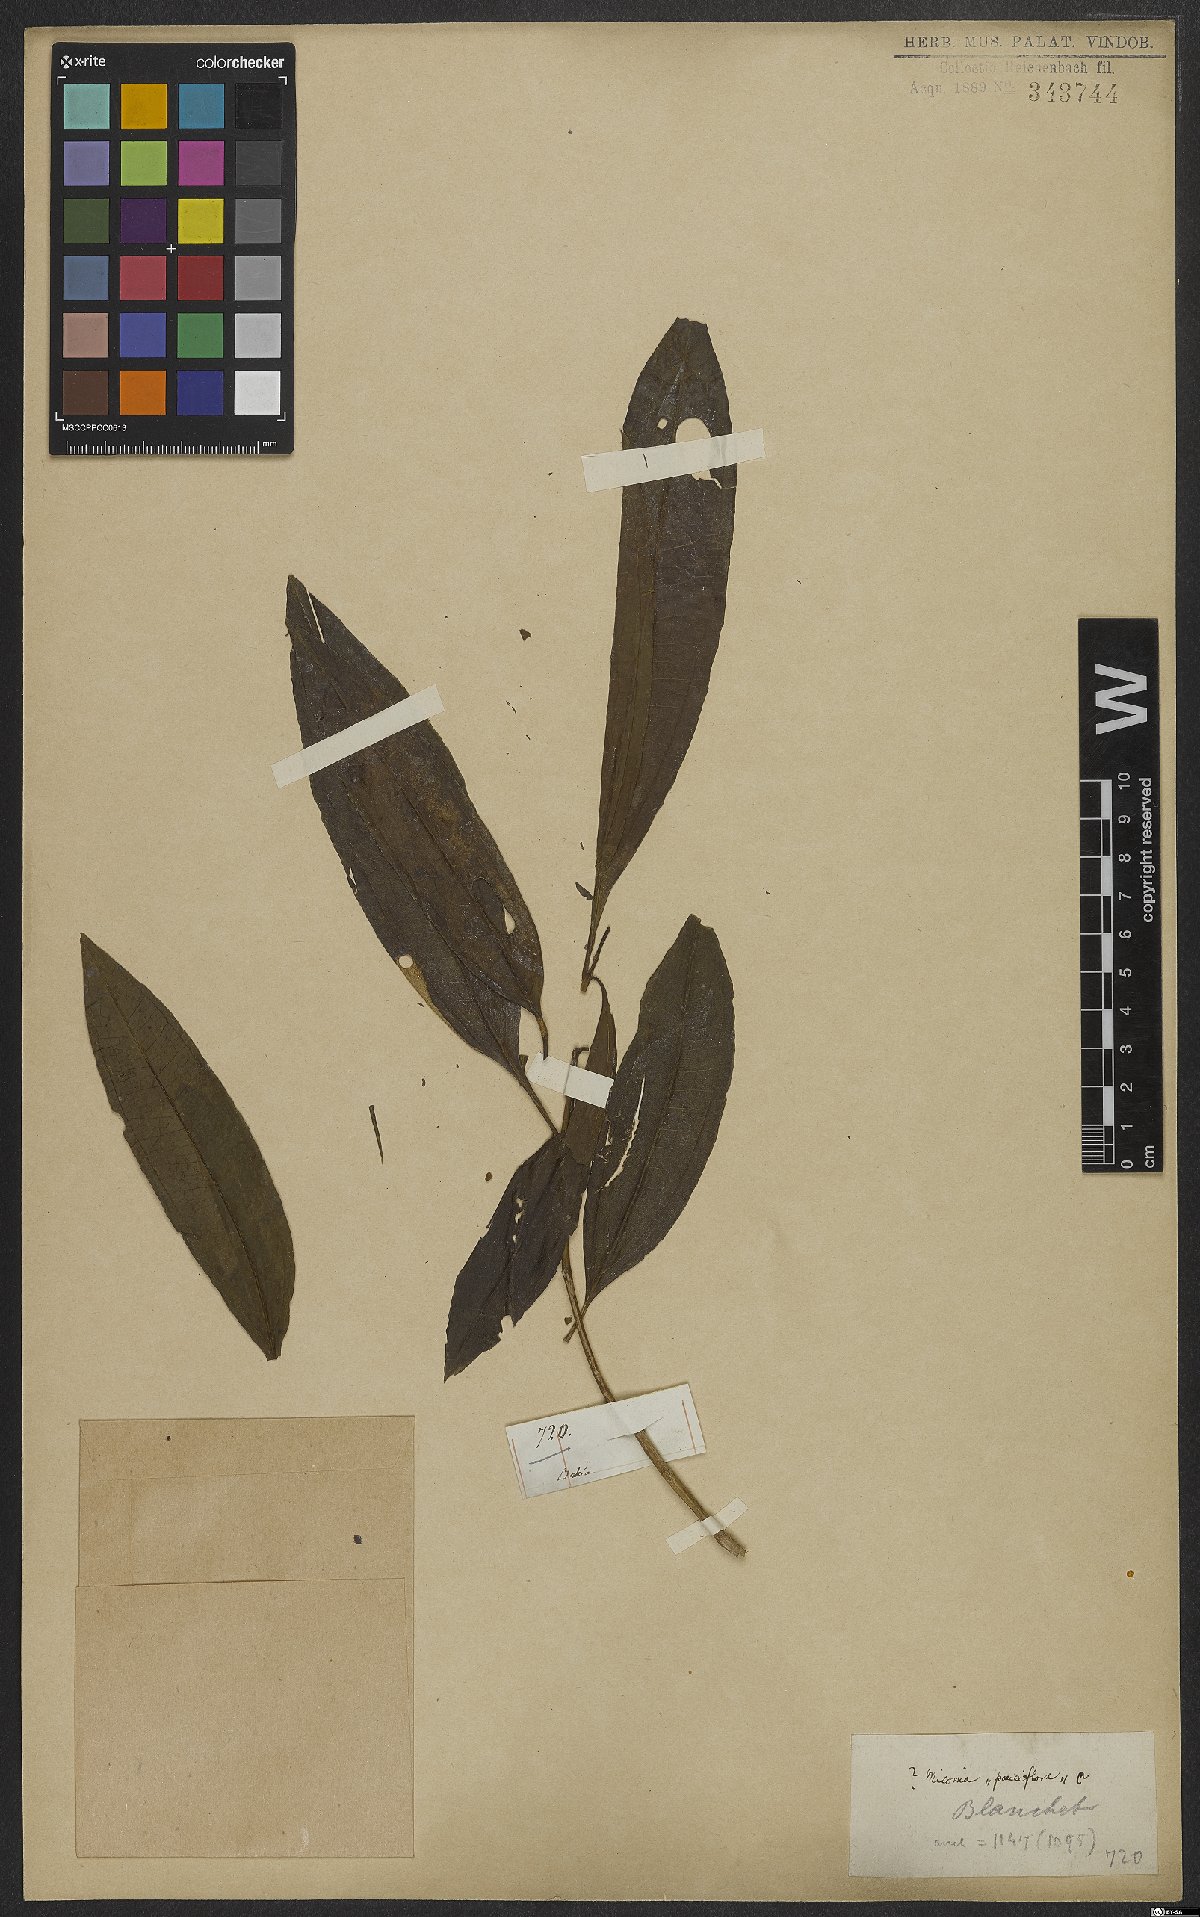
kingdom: Plantae
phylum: Tracheophyta
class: Magnoliopsida
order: Myrtales
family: Melastomataceae
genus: Miconia
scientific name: Miconia brasiliensis
